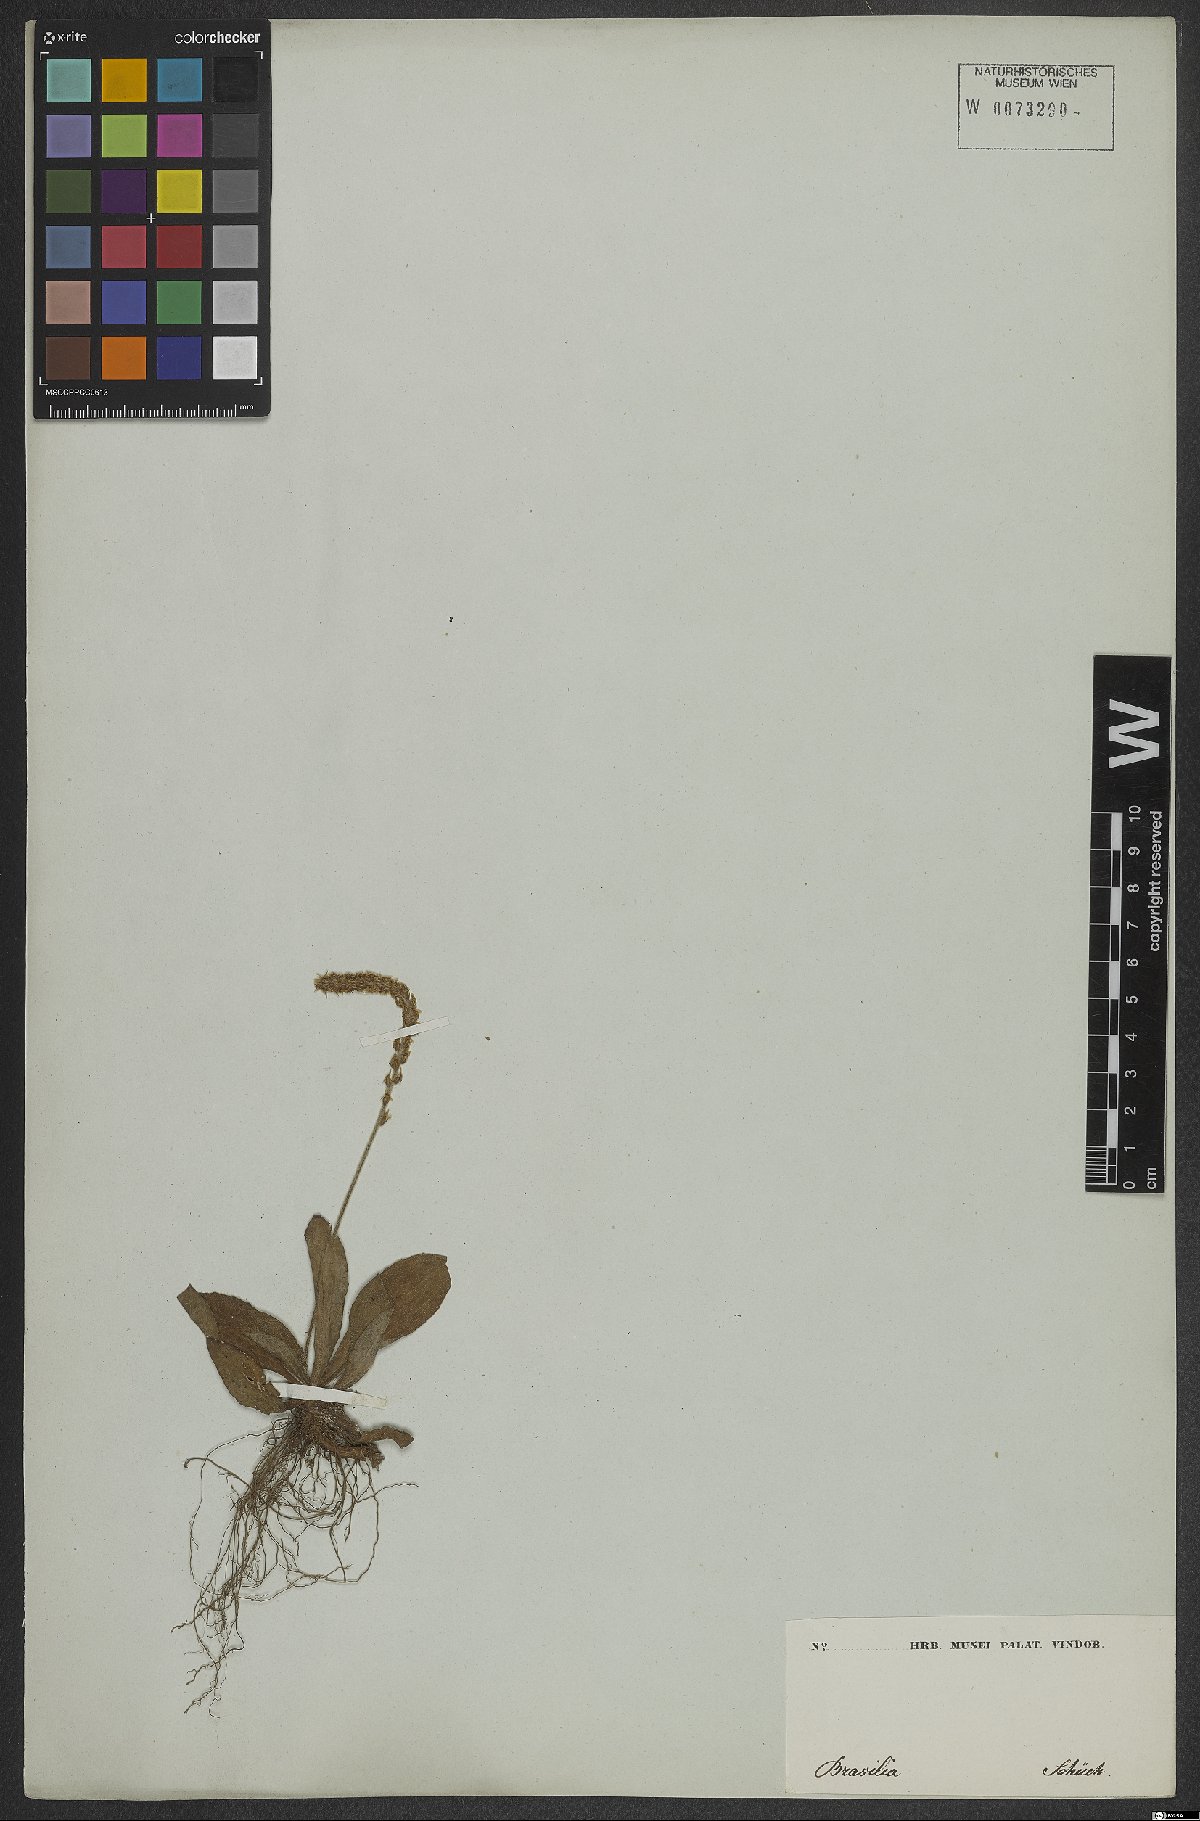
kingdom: Plantae
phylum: Tracheophyta
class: Magnoliopsida
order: Lamiales
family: Plantaginaceae
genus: Plantago
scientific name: Plantago guilleminiana
